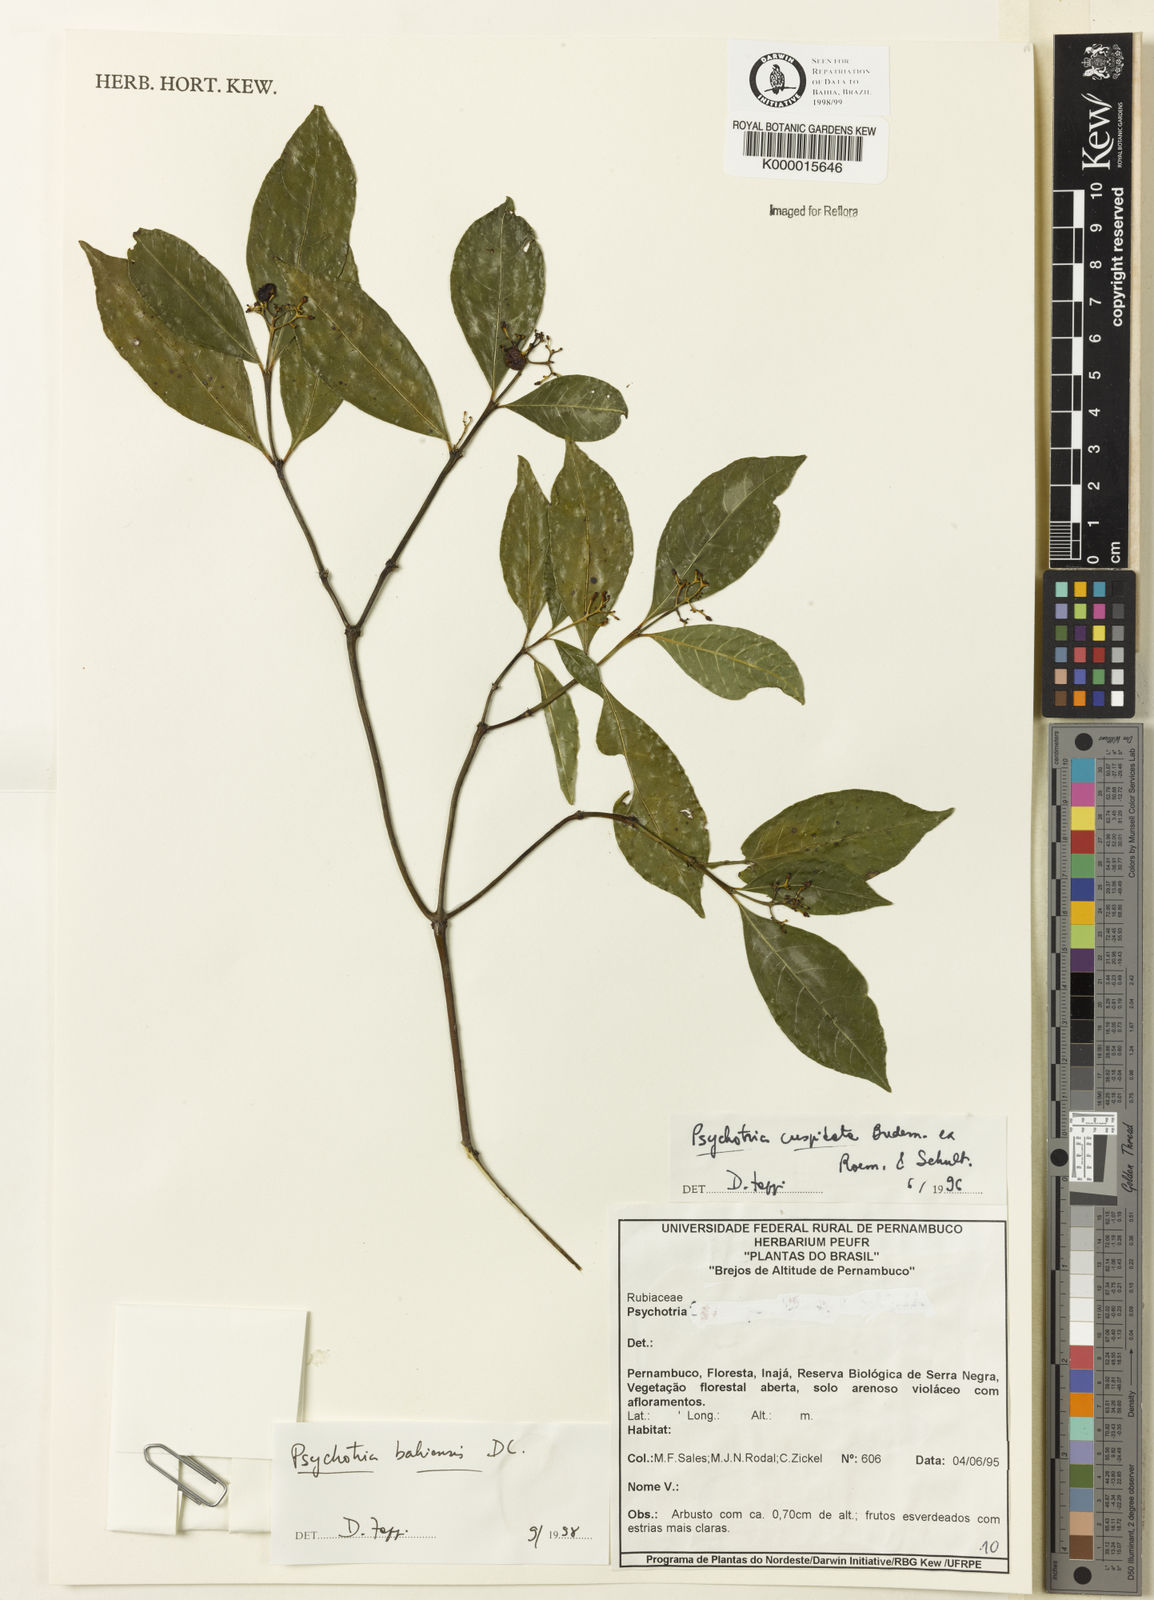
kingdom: Plantae
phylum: Tracheophyta
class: Magnoliopsida
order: Gentianales
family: Rubiaceae
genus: Psychotria
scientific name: Psychotria bahiensis
